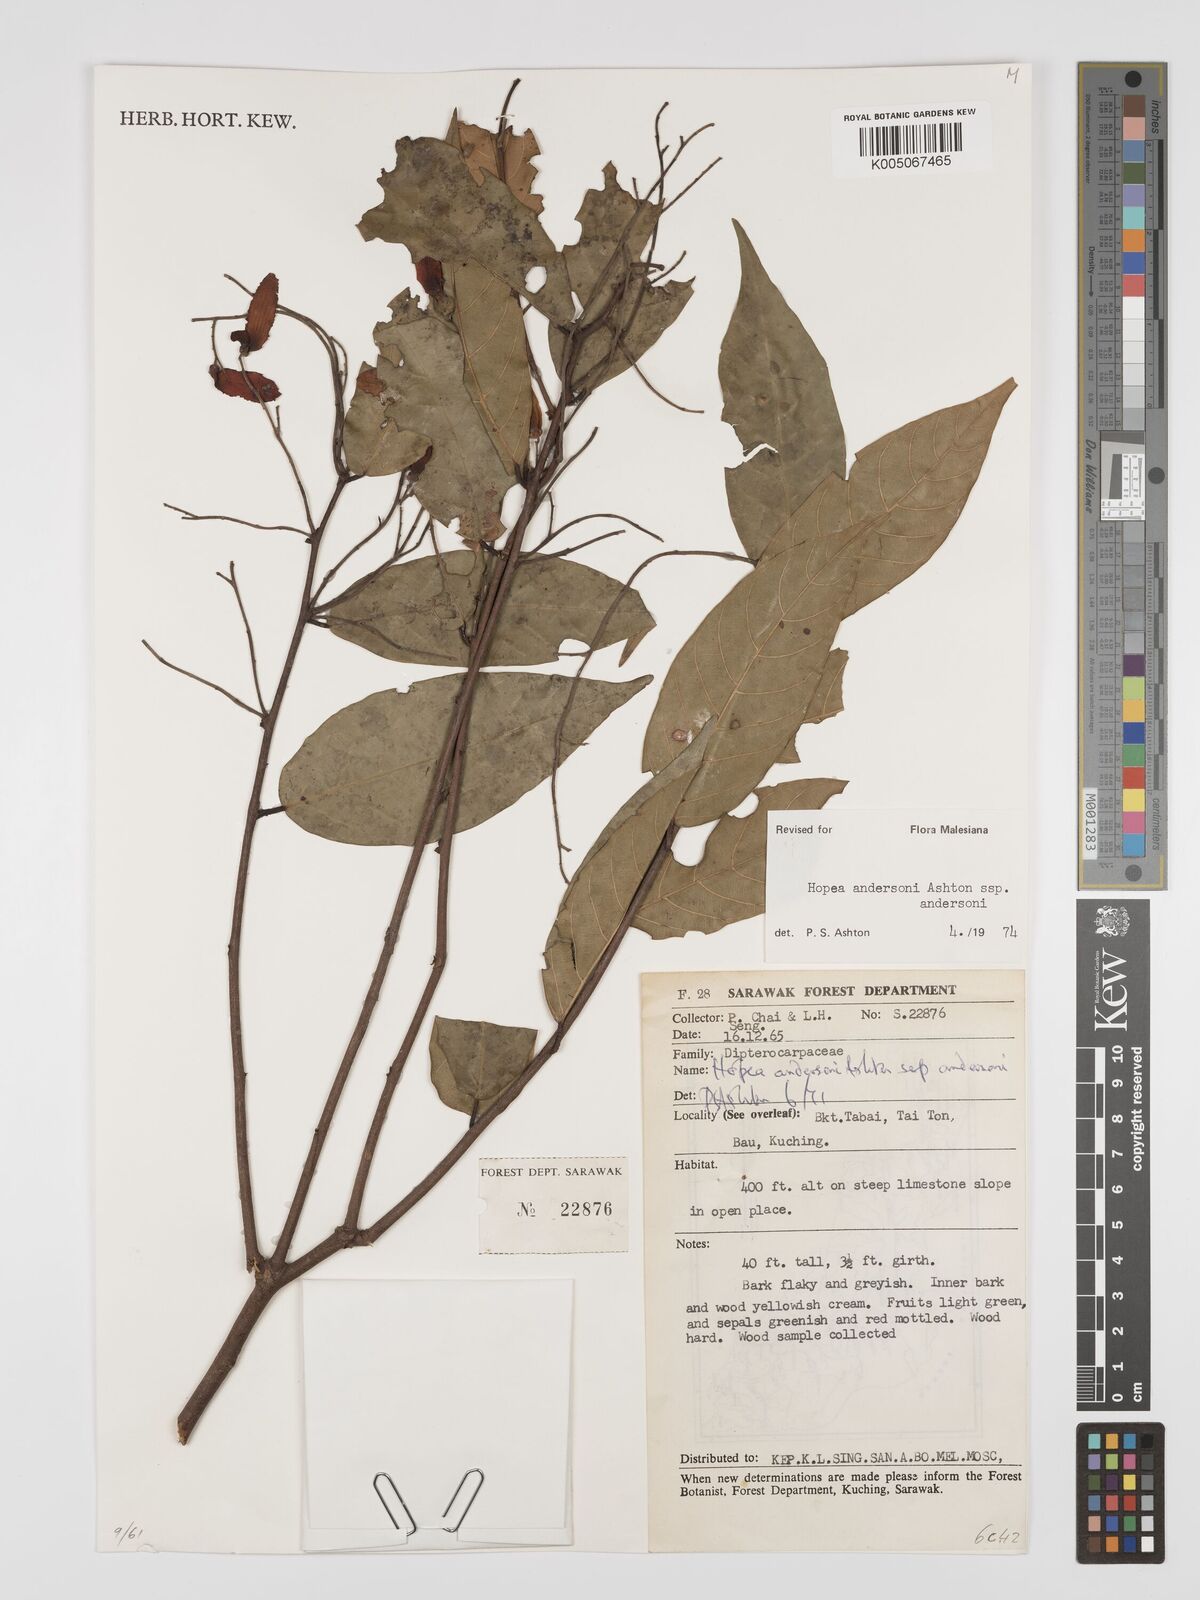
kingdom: Plantae
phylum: Tracheophyta
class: Magnoliopsida
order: Malvales
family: Dipterocarpaceae
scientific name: Dipterocarpaceae
